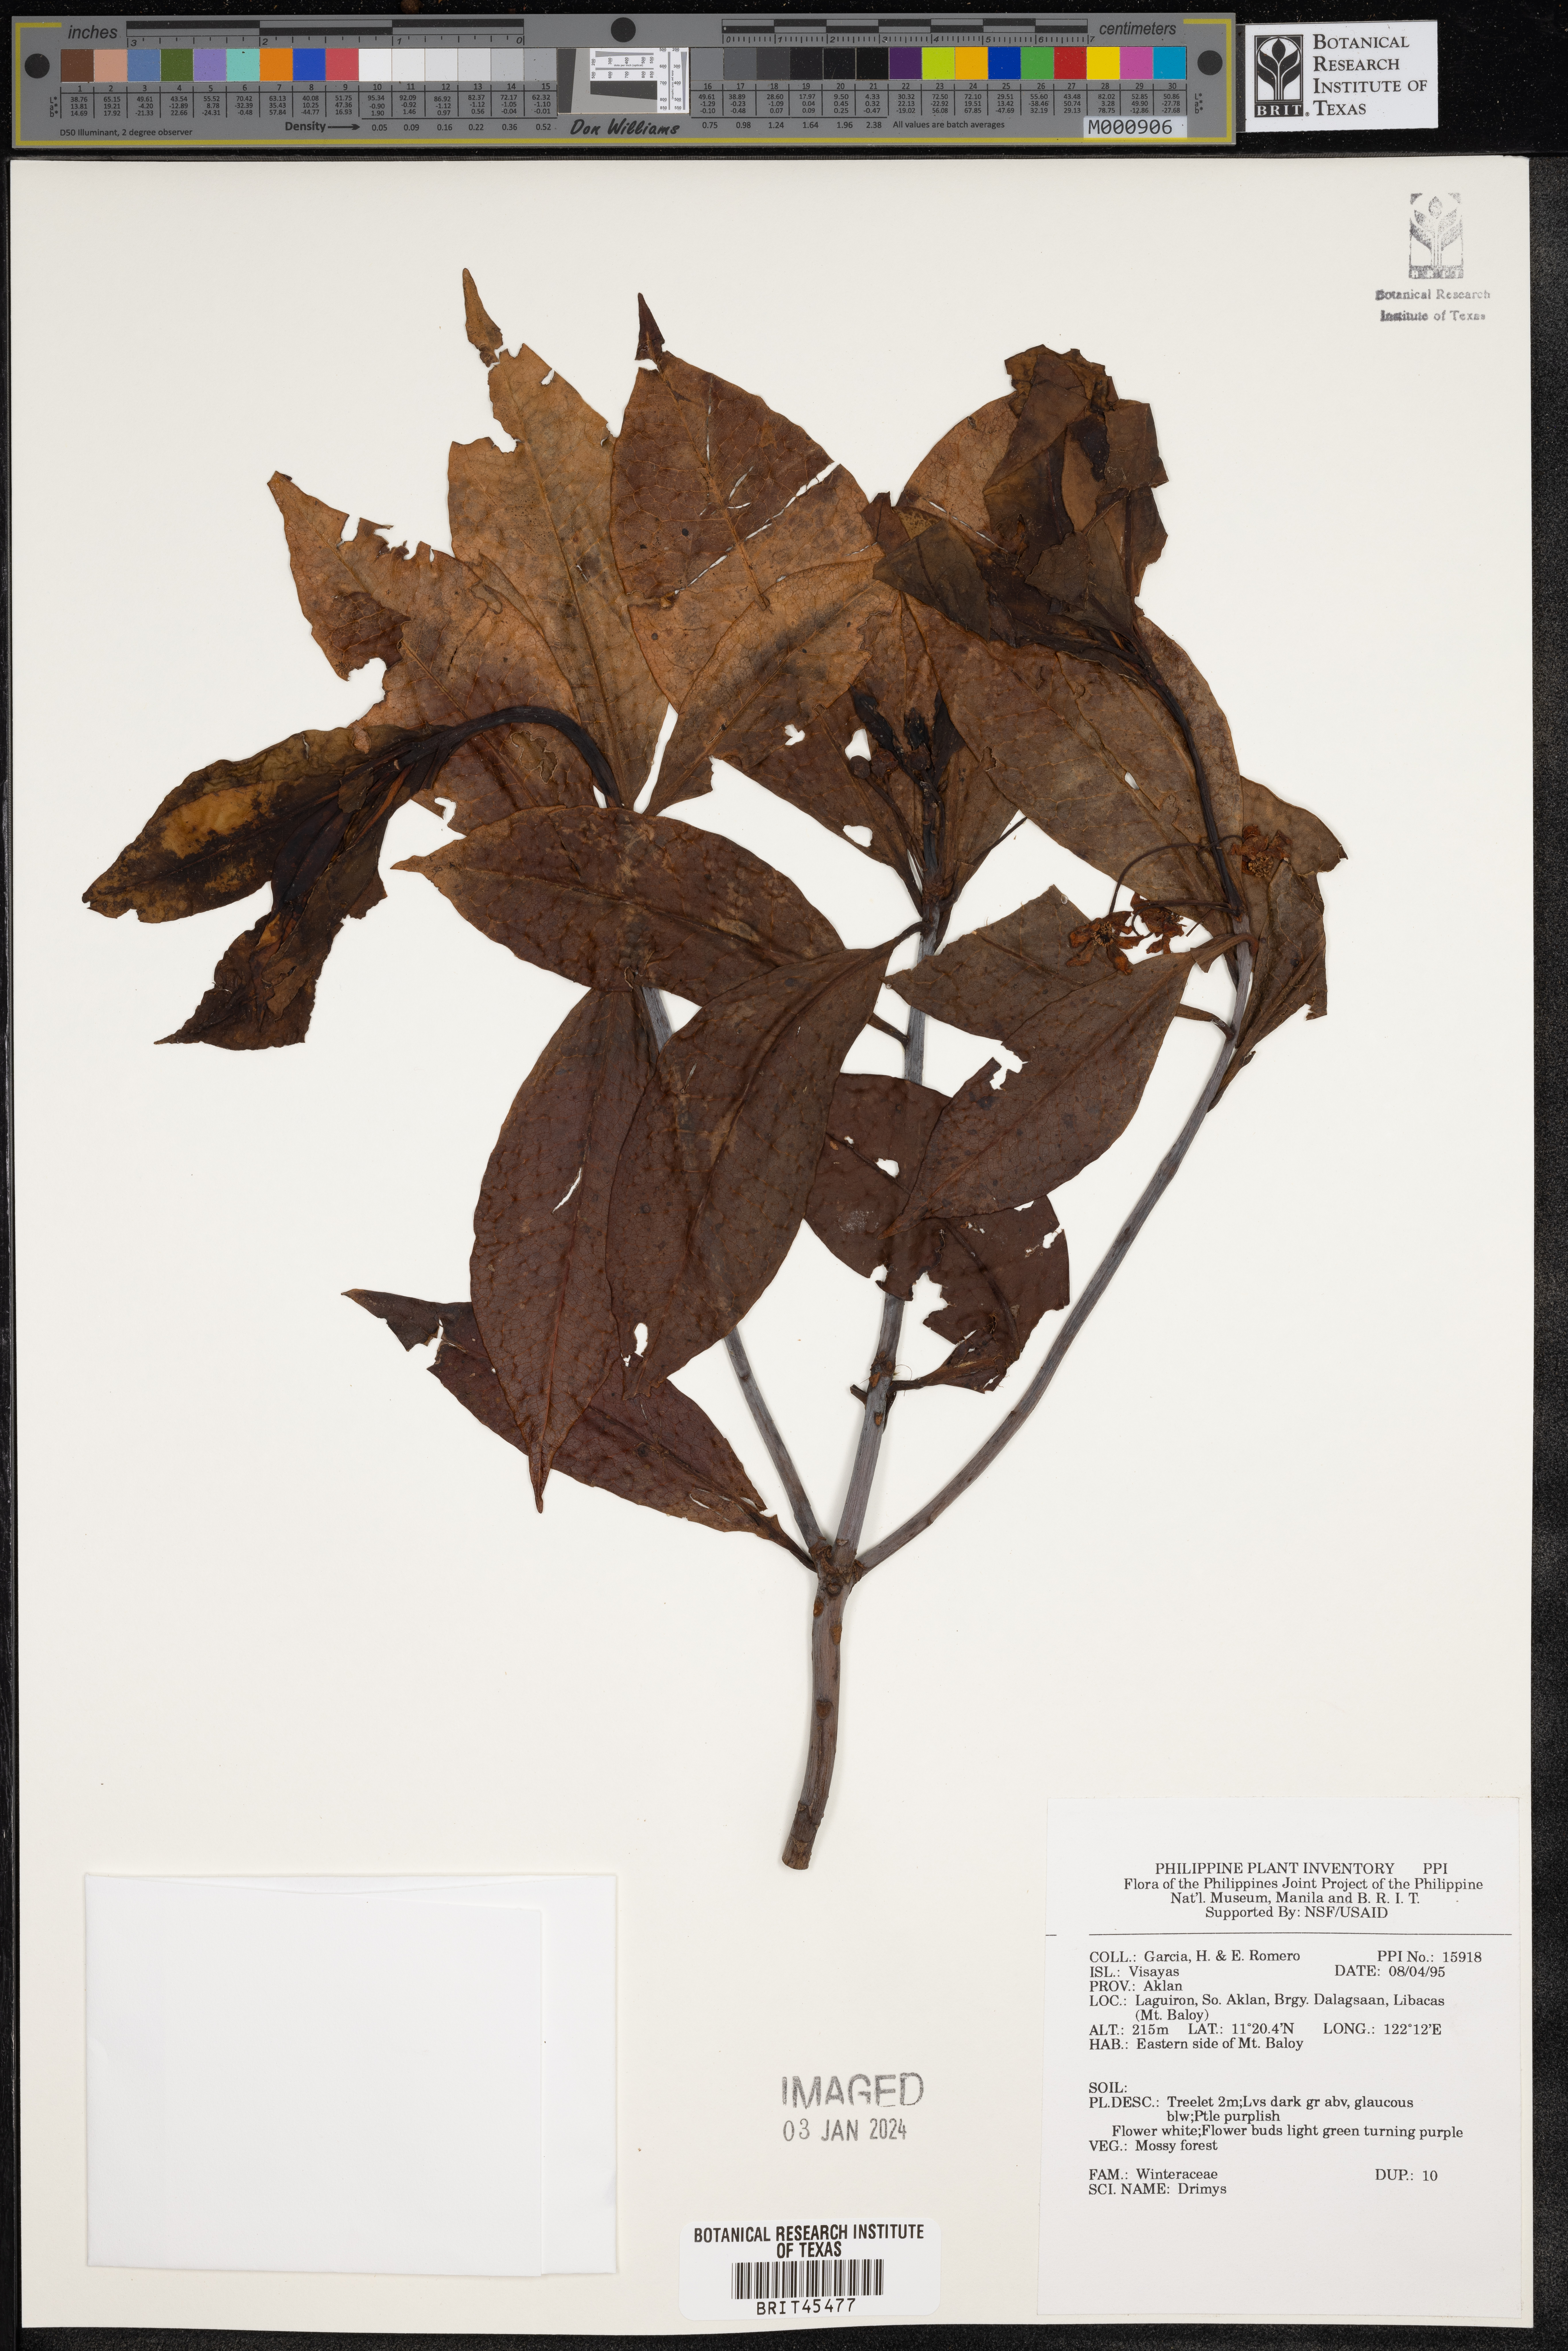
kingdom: Plantae
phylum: Tracheophyta
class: Magnoliopsida
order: Canellales
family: Winteraceae
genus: Drimys
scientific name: Drimys
